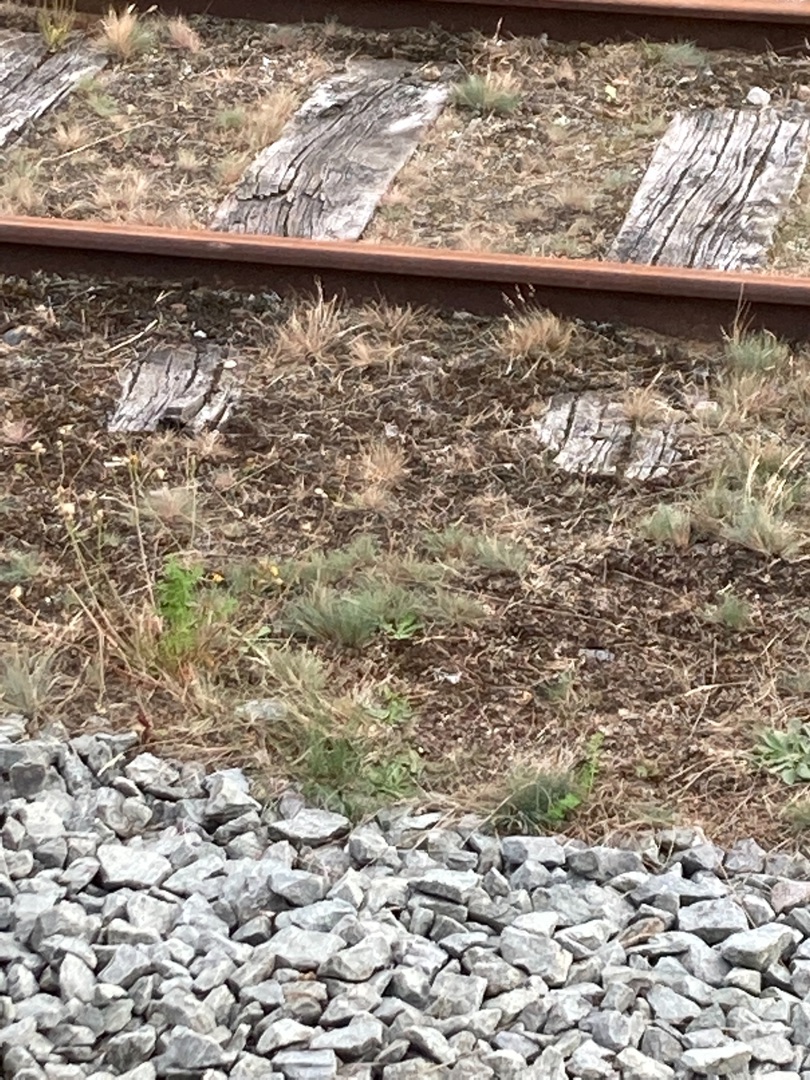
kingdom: Plantae
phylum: Tracheophyta
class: Liliopsida
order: Poales
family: Poaceae
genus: Corynephorus
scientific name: Corynephorus canescens
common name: Sandskæg
